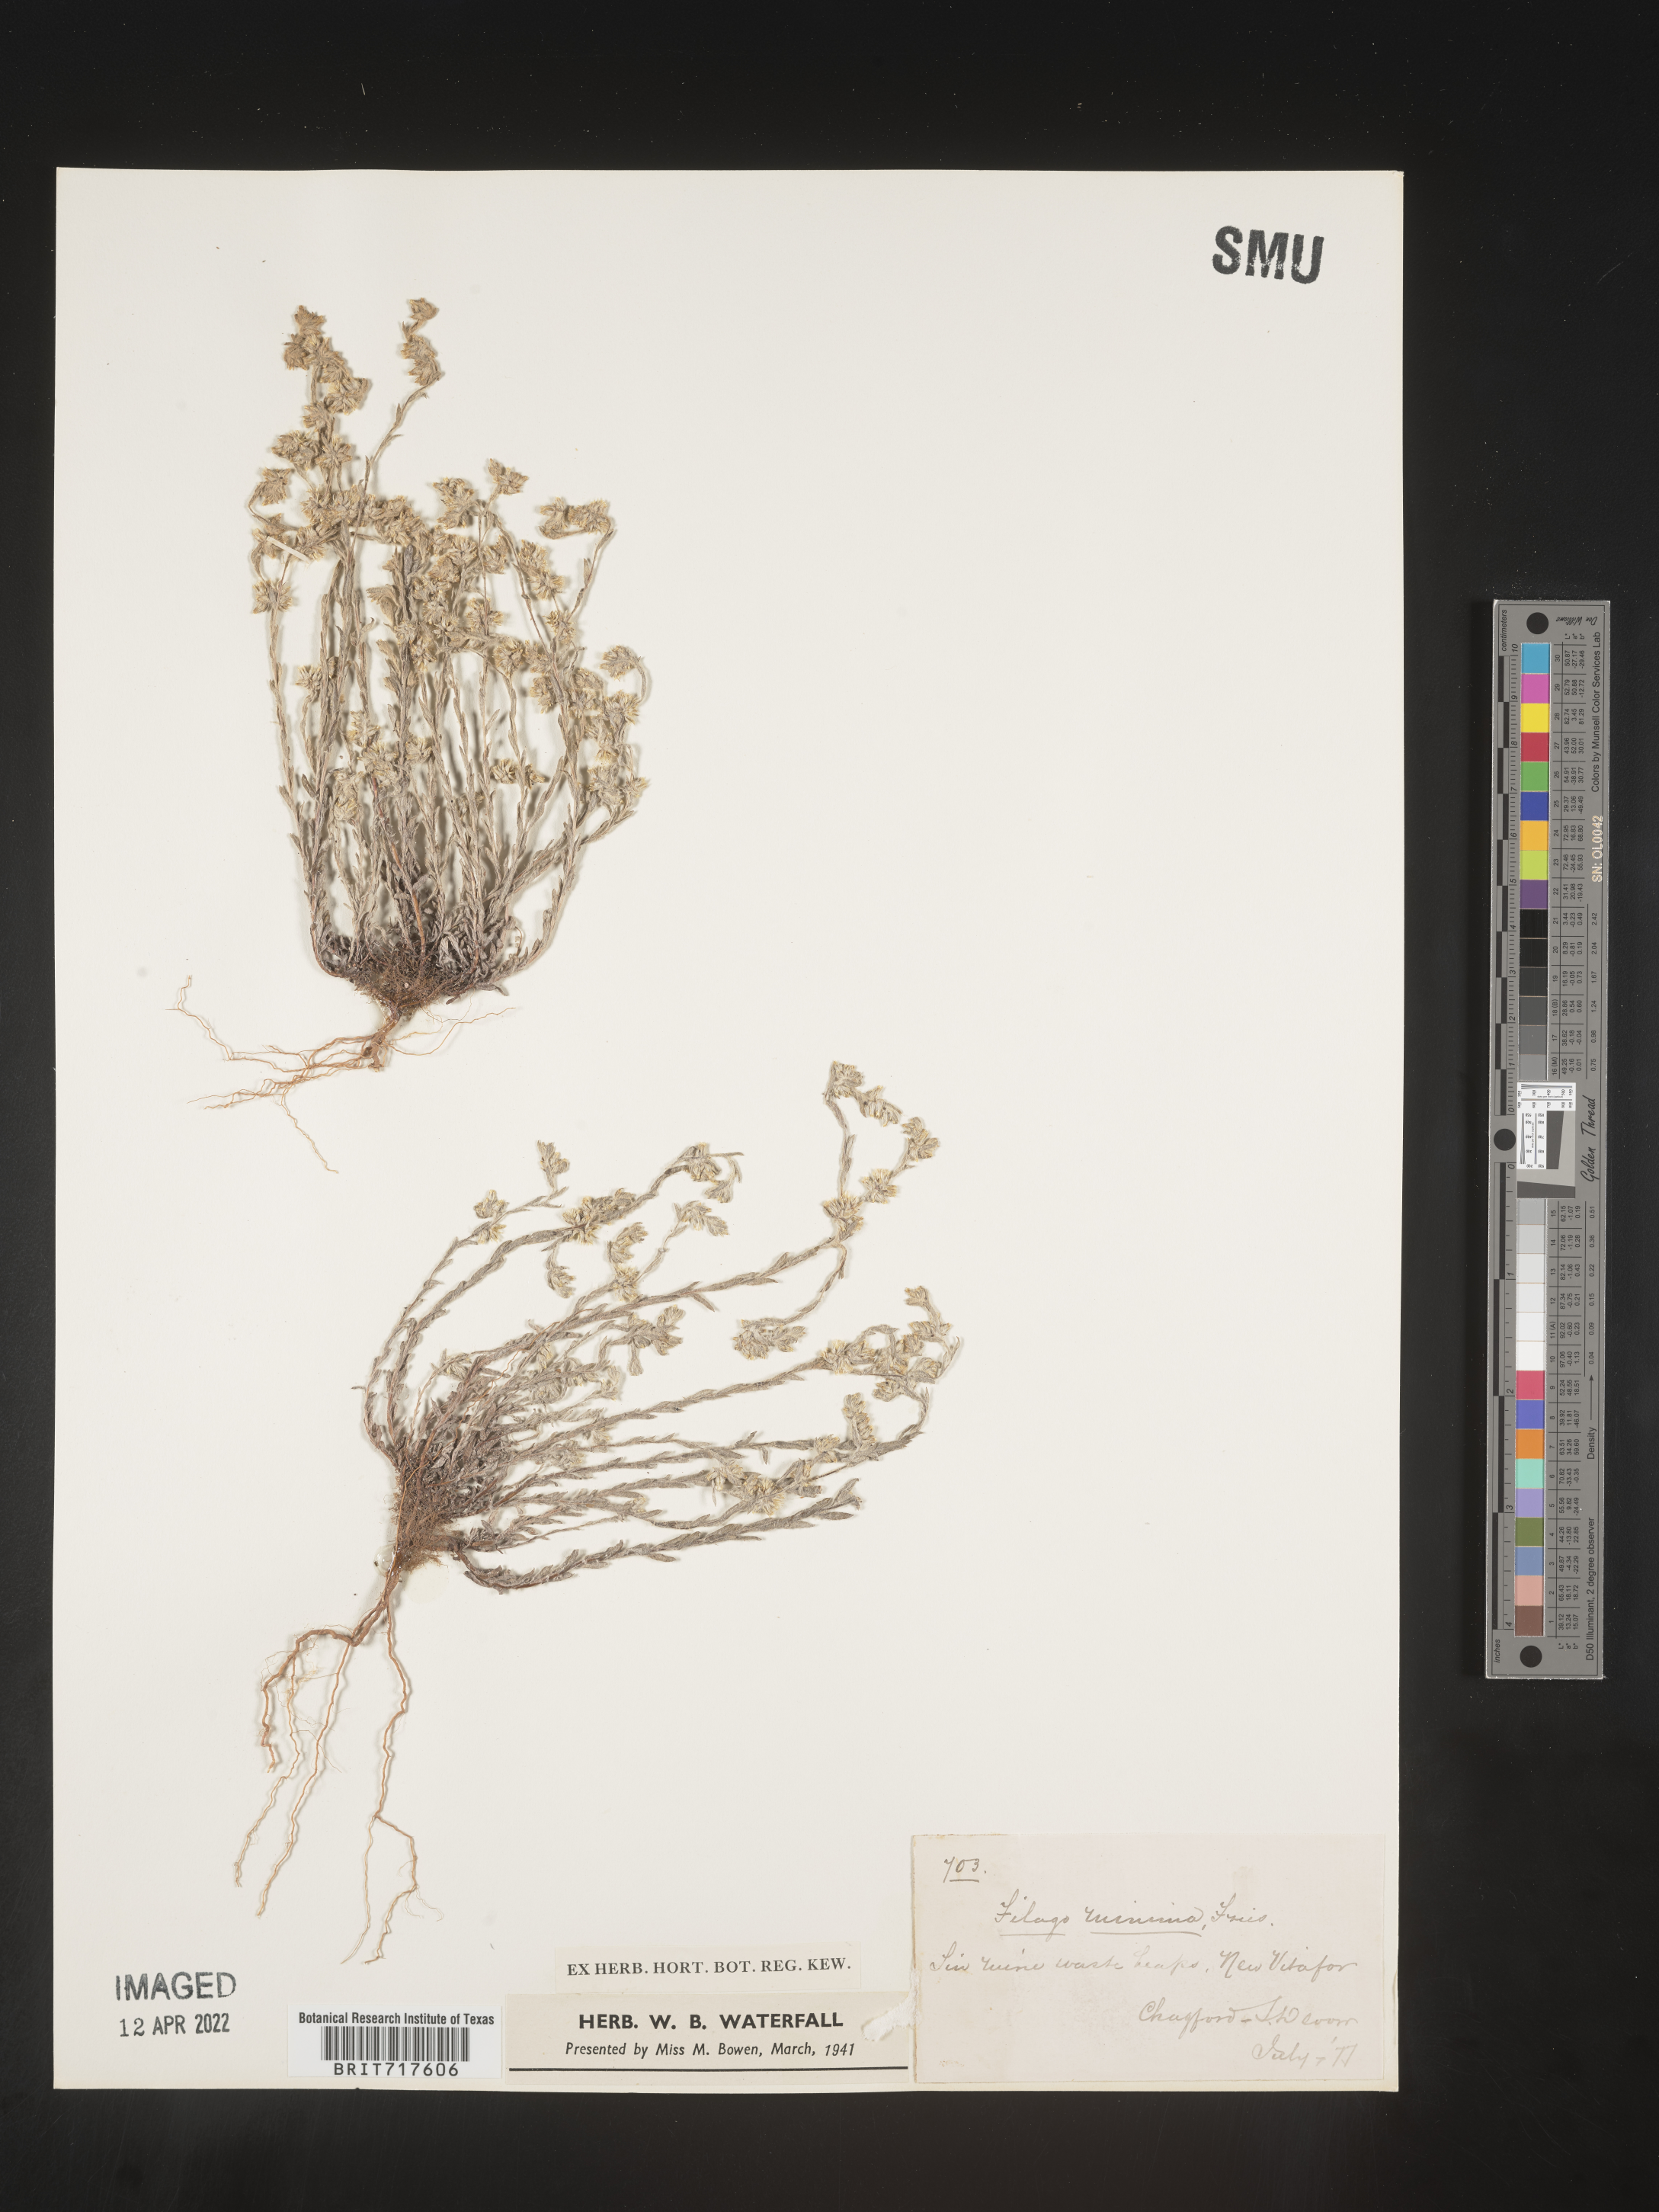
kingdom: Plantae
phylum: Tracheophyta
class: Magnoliopsida
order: Asterales
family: Asteraceae
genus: Filago
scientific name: Filago
